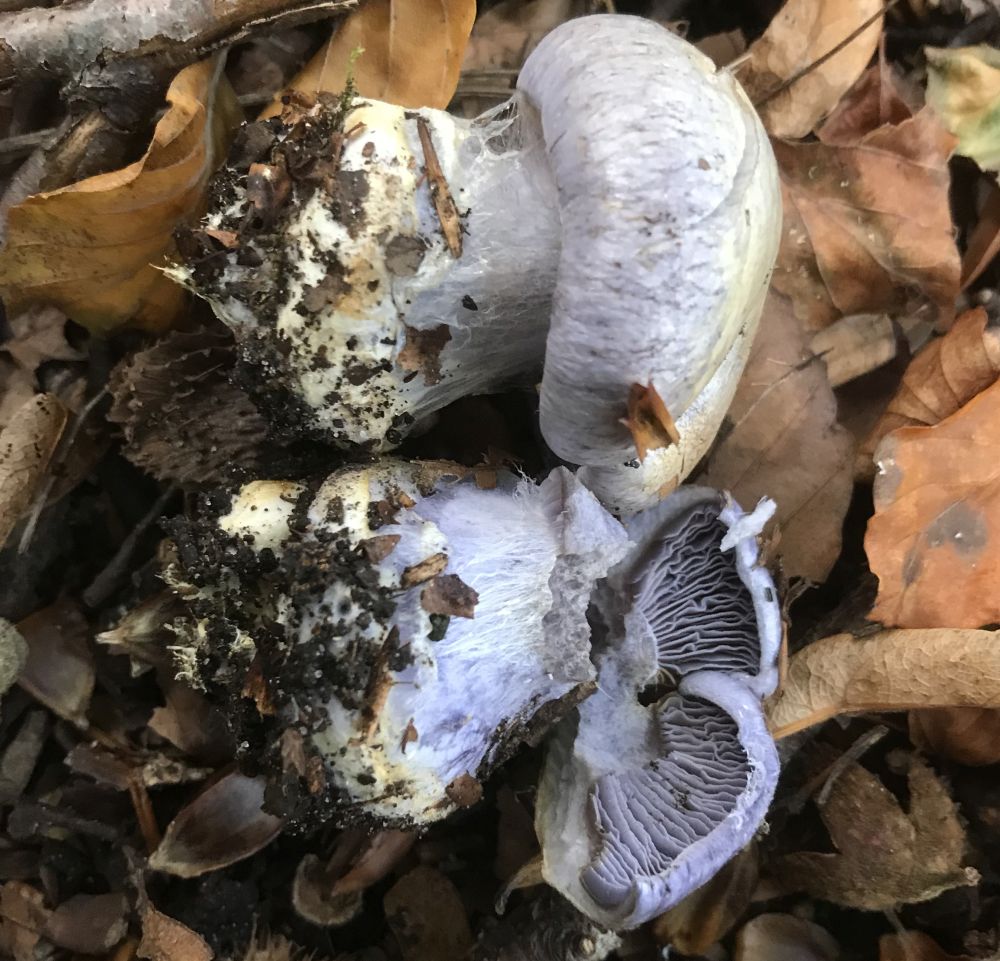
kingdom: Fungi
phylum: Basidiomycota
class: Agaricomycetes
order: Agaricales
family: Cortinariaceae
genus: Cortinarius
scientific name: Cortinarius caerulescens
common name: blåkødet slørhat
